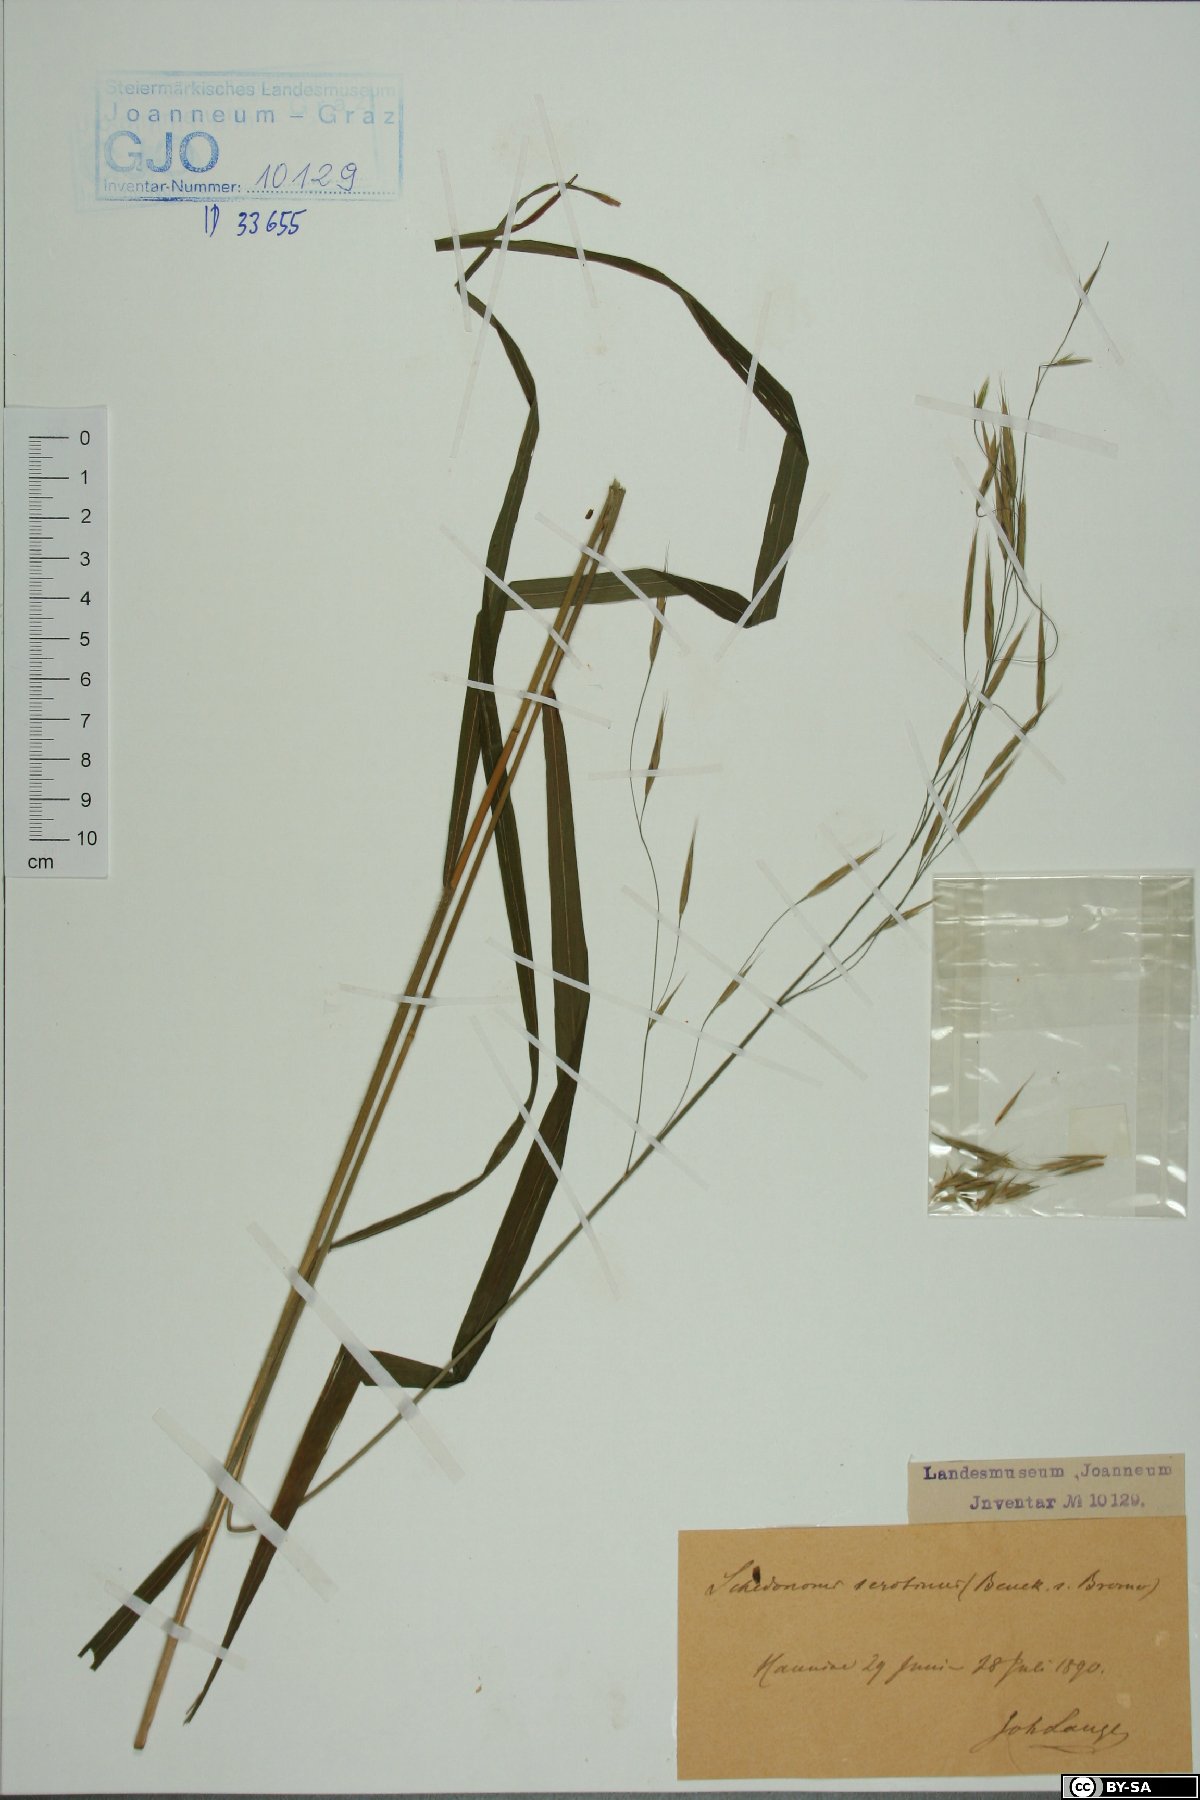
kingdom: Plantae
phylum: Tracheophyta
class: Liliopsida
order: Poales
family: Poaceae
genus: Bromus
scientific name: Bromus ramosus
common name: Hairy brome
